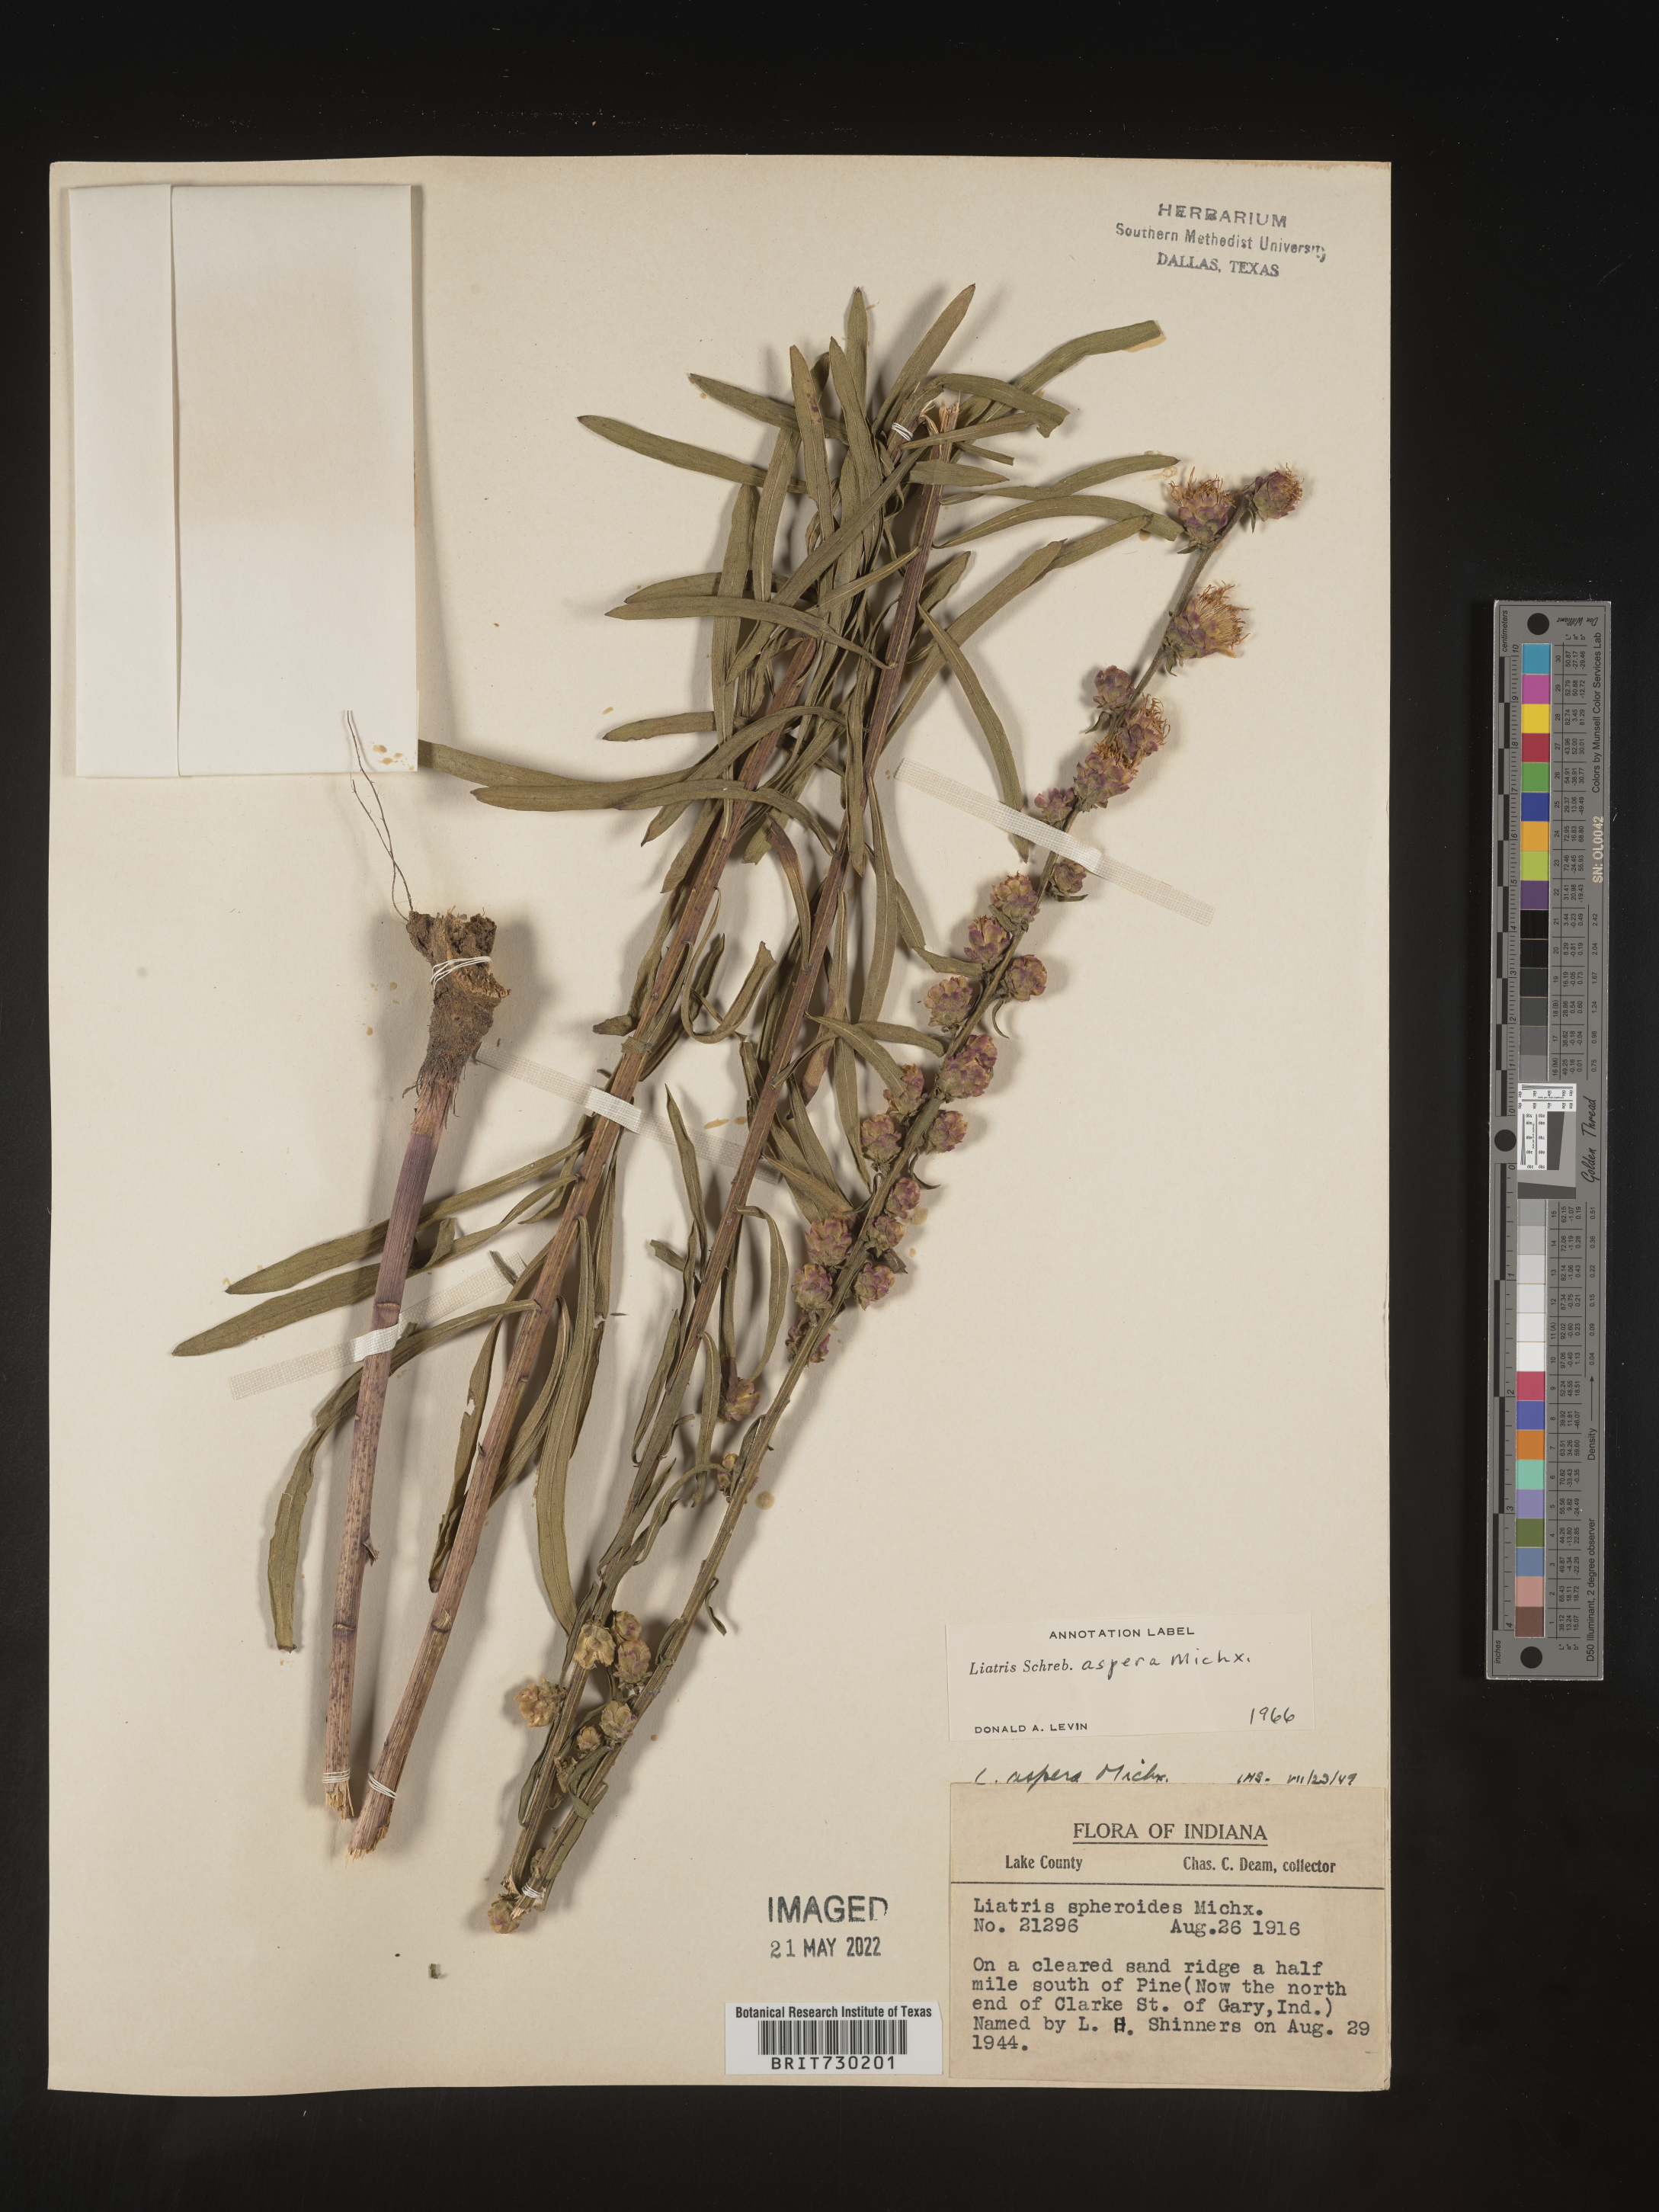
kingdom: Plantae
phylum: Tracheophyta
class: Magnoliopsida
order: Asterales
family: Asteraceae
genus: Liatris
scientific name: Liatris aspera
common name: Lacerate blazing-star
